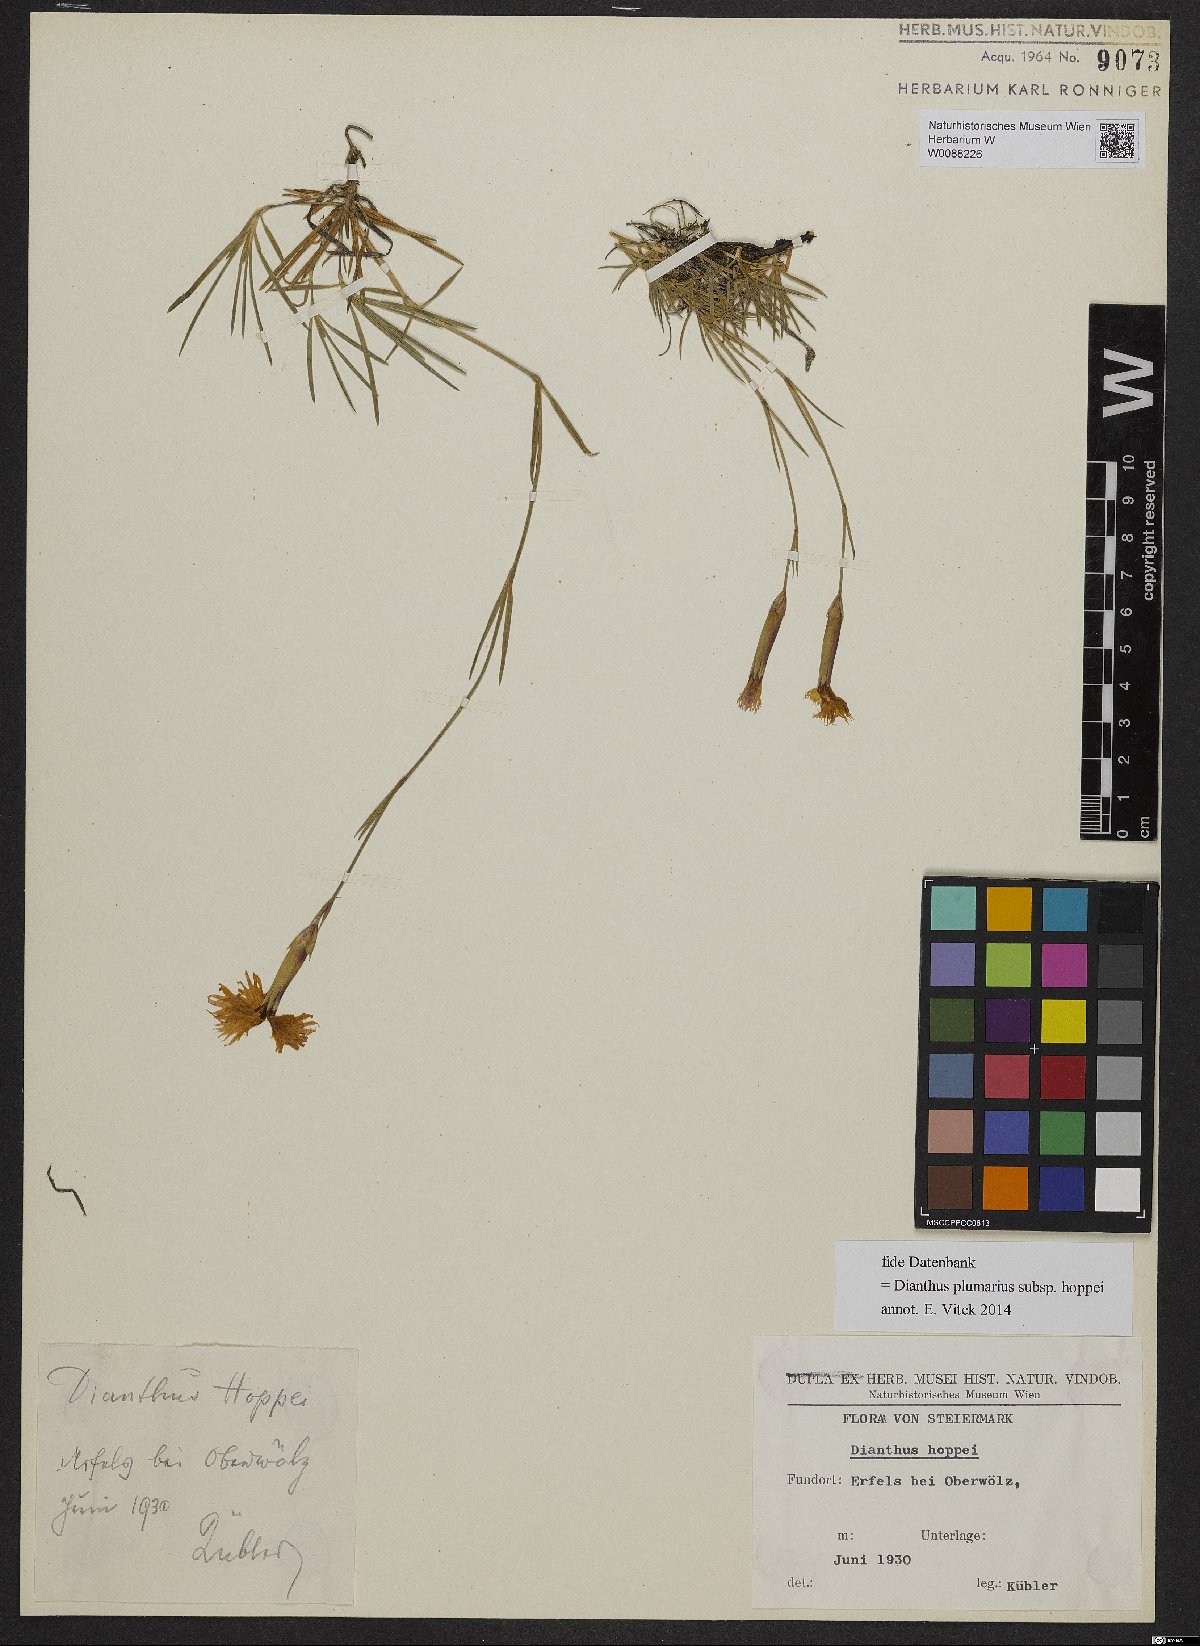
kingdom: Plantae
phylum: Tracheophyta
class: Magnoliopsida
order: Caryophyllales
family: Caryophyllaceae
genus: Dianthus
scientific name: Dianthus plumarius
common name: Pink
